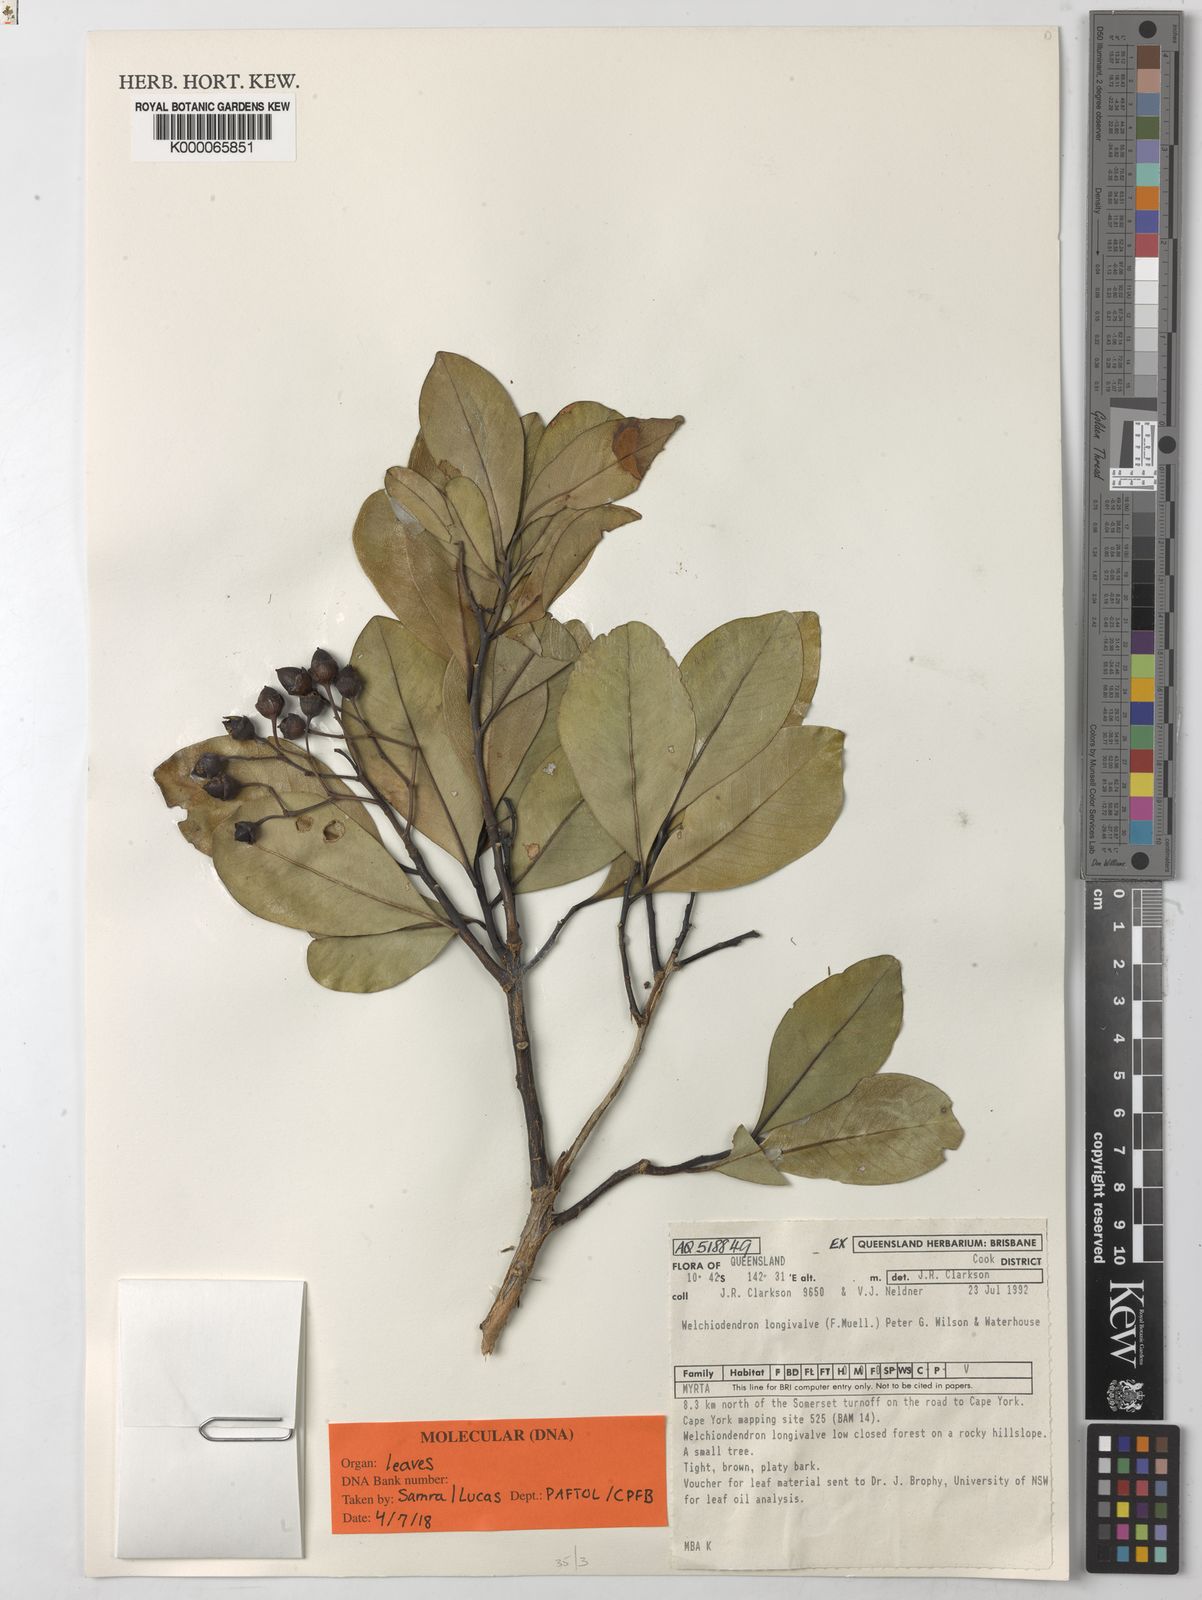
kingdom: Plantae
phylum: Tracheophyta
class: Magnoliopsida
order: Myrtales
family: Myrtaceae
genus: Welchiodendron
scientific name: Welchiodendron longivalve
